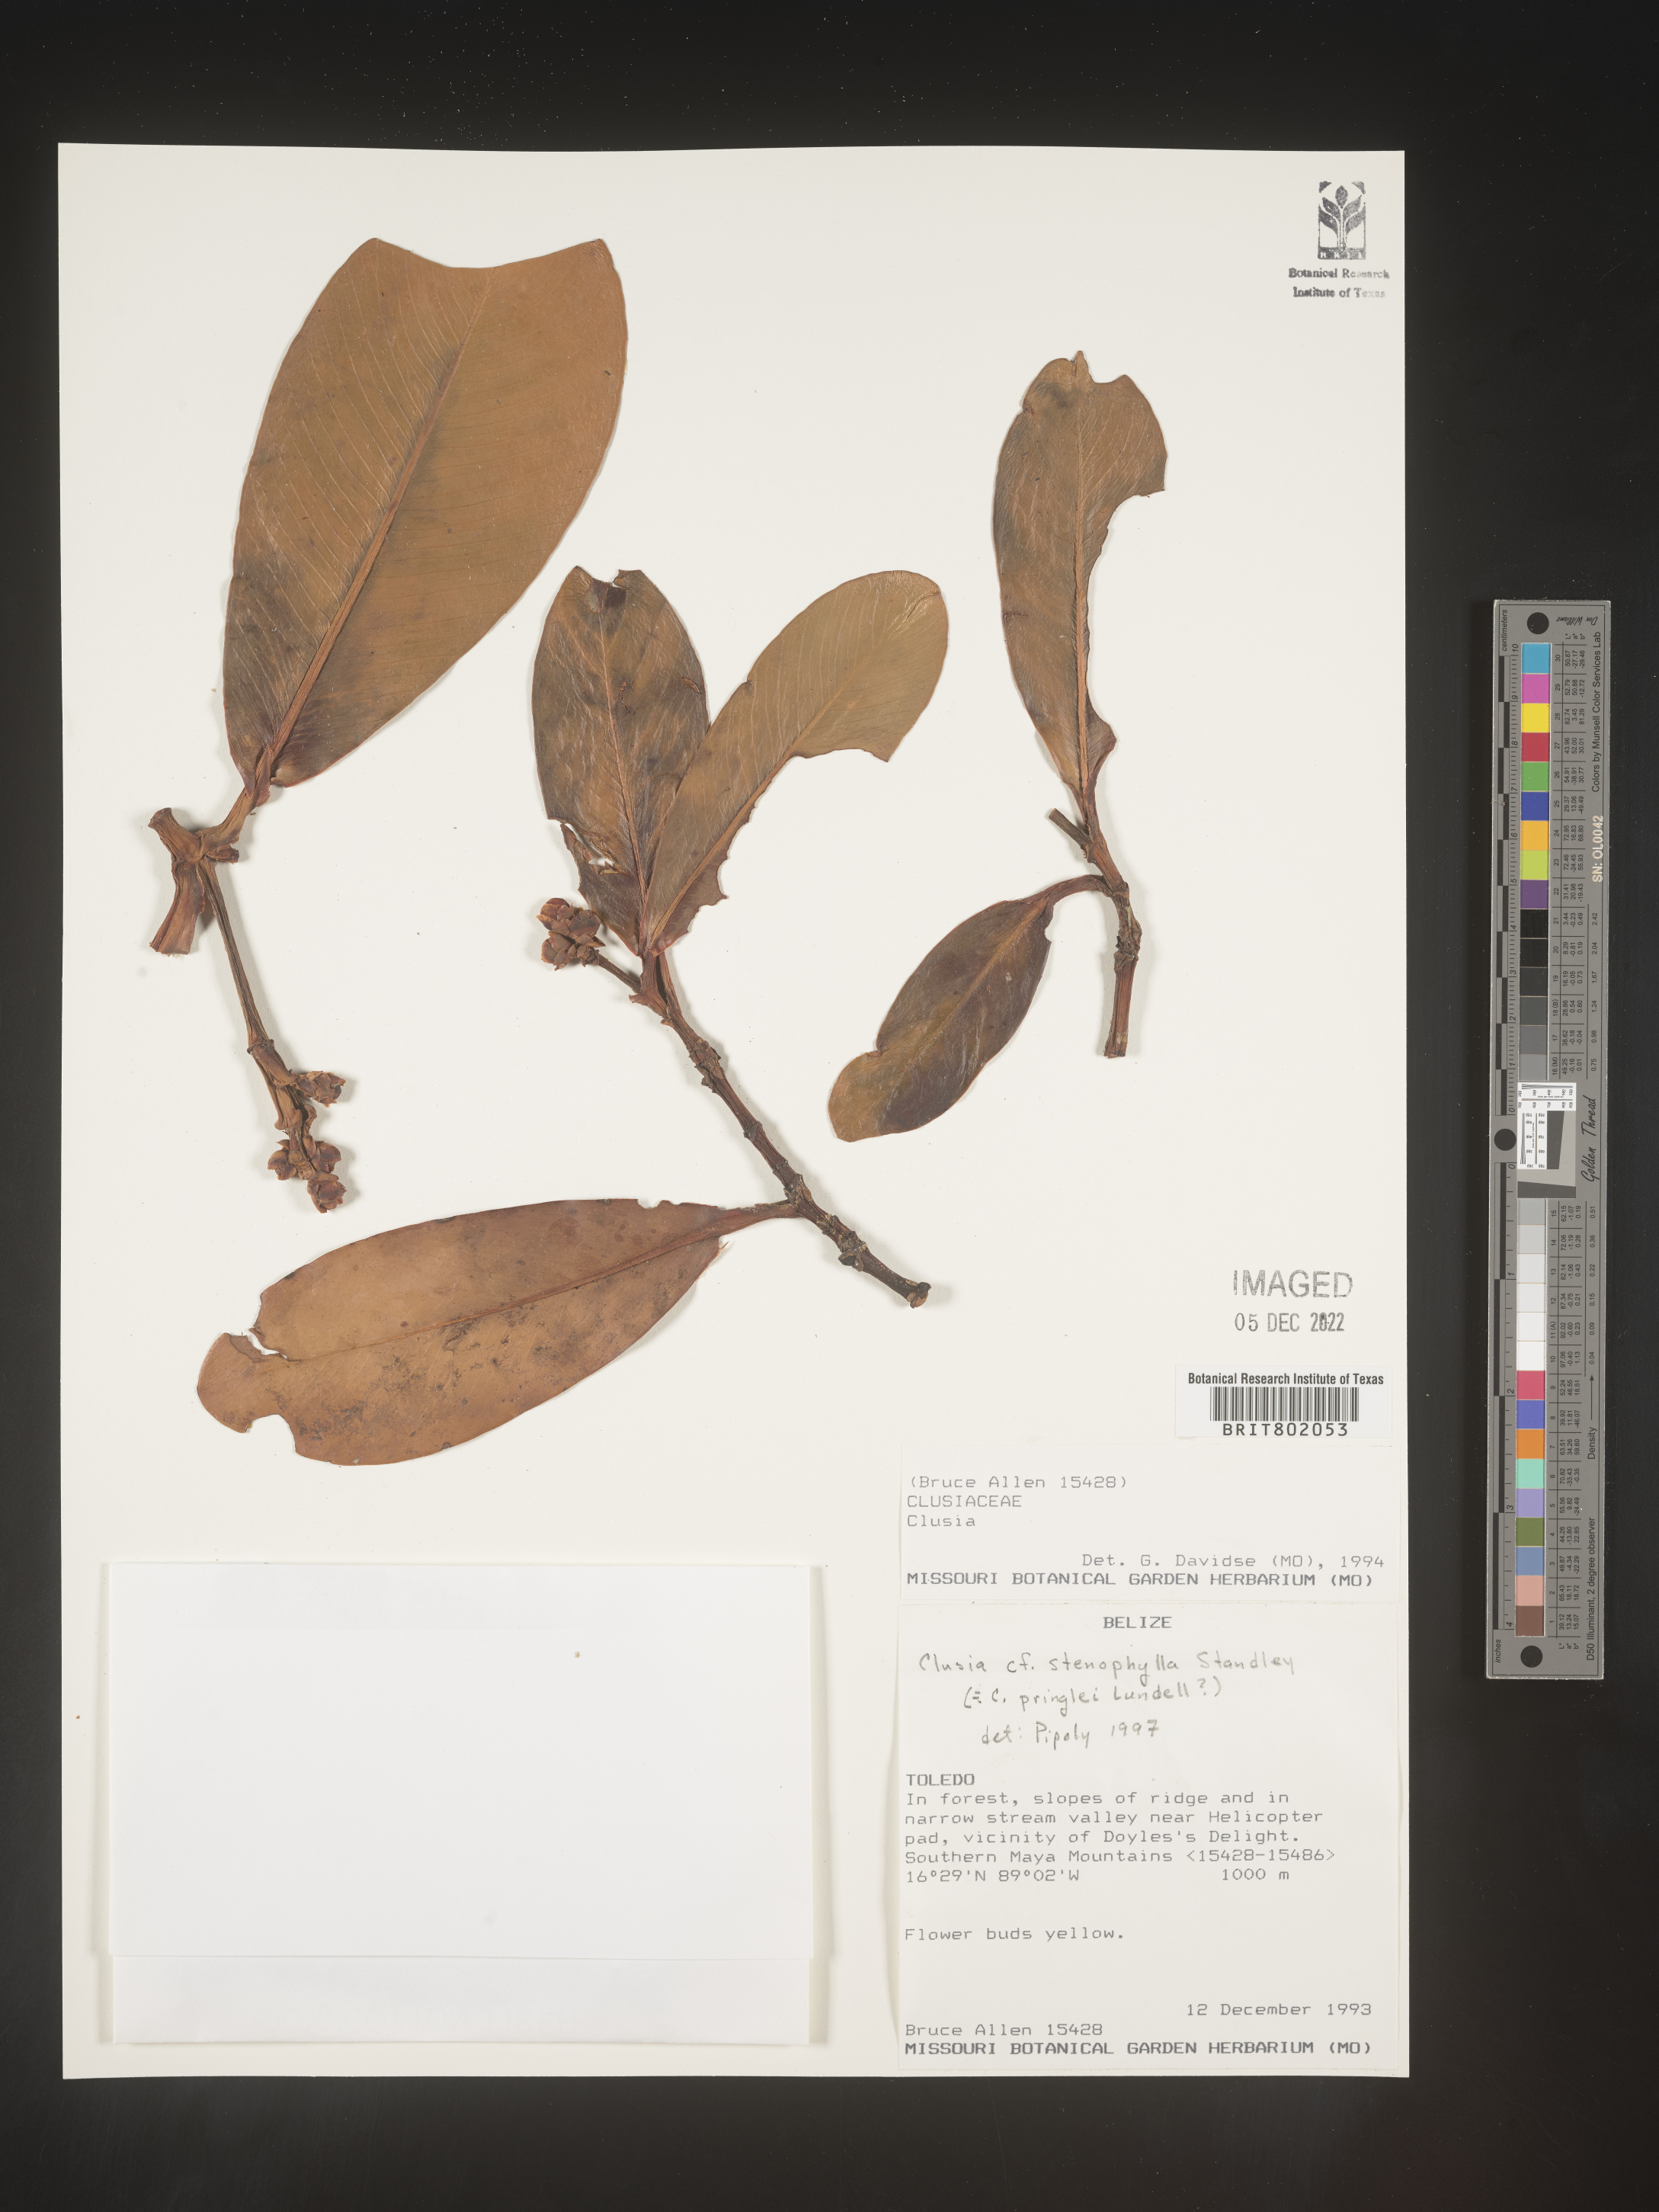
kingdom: Plantae
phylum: Tracheophyta
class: Magnoliopsida
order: Malpighiales
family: Clusiaceae
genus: Clusia
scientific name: Clusia
